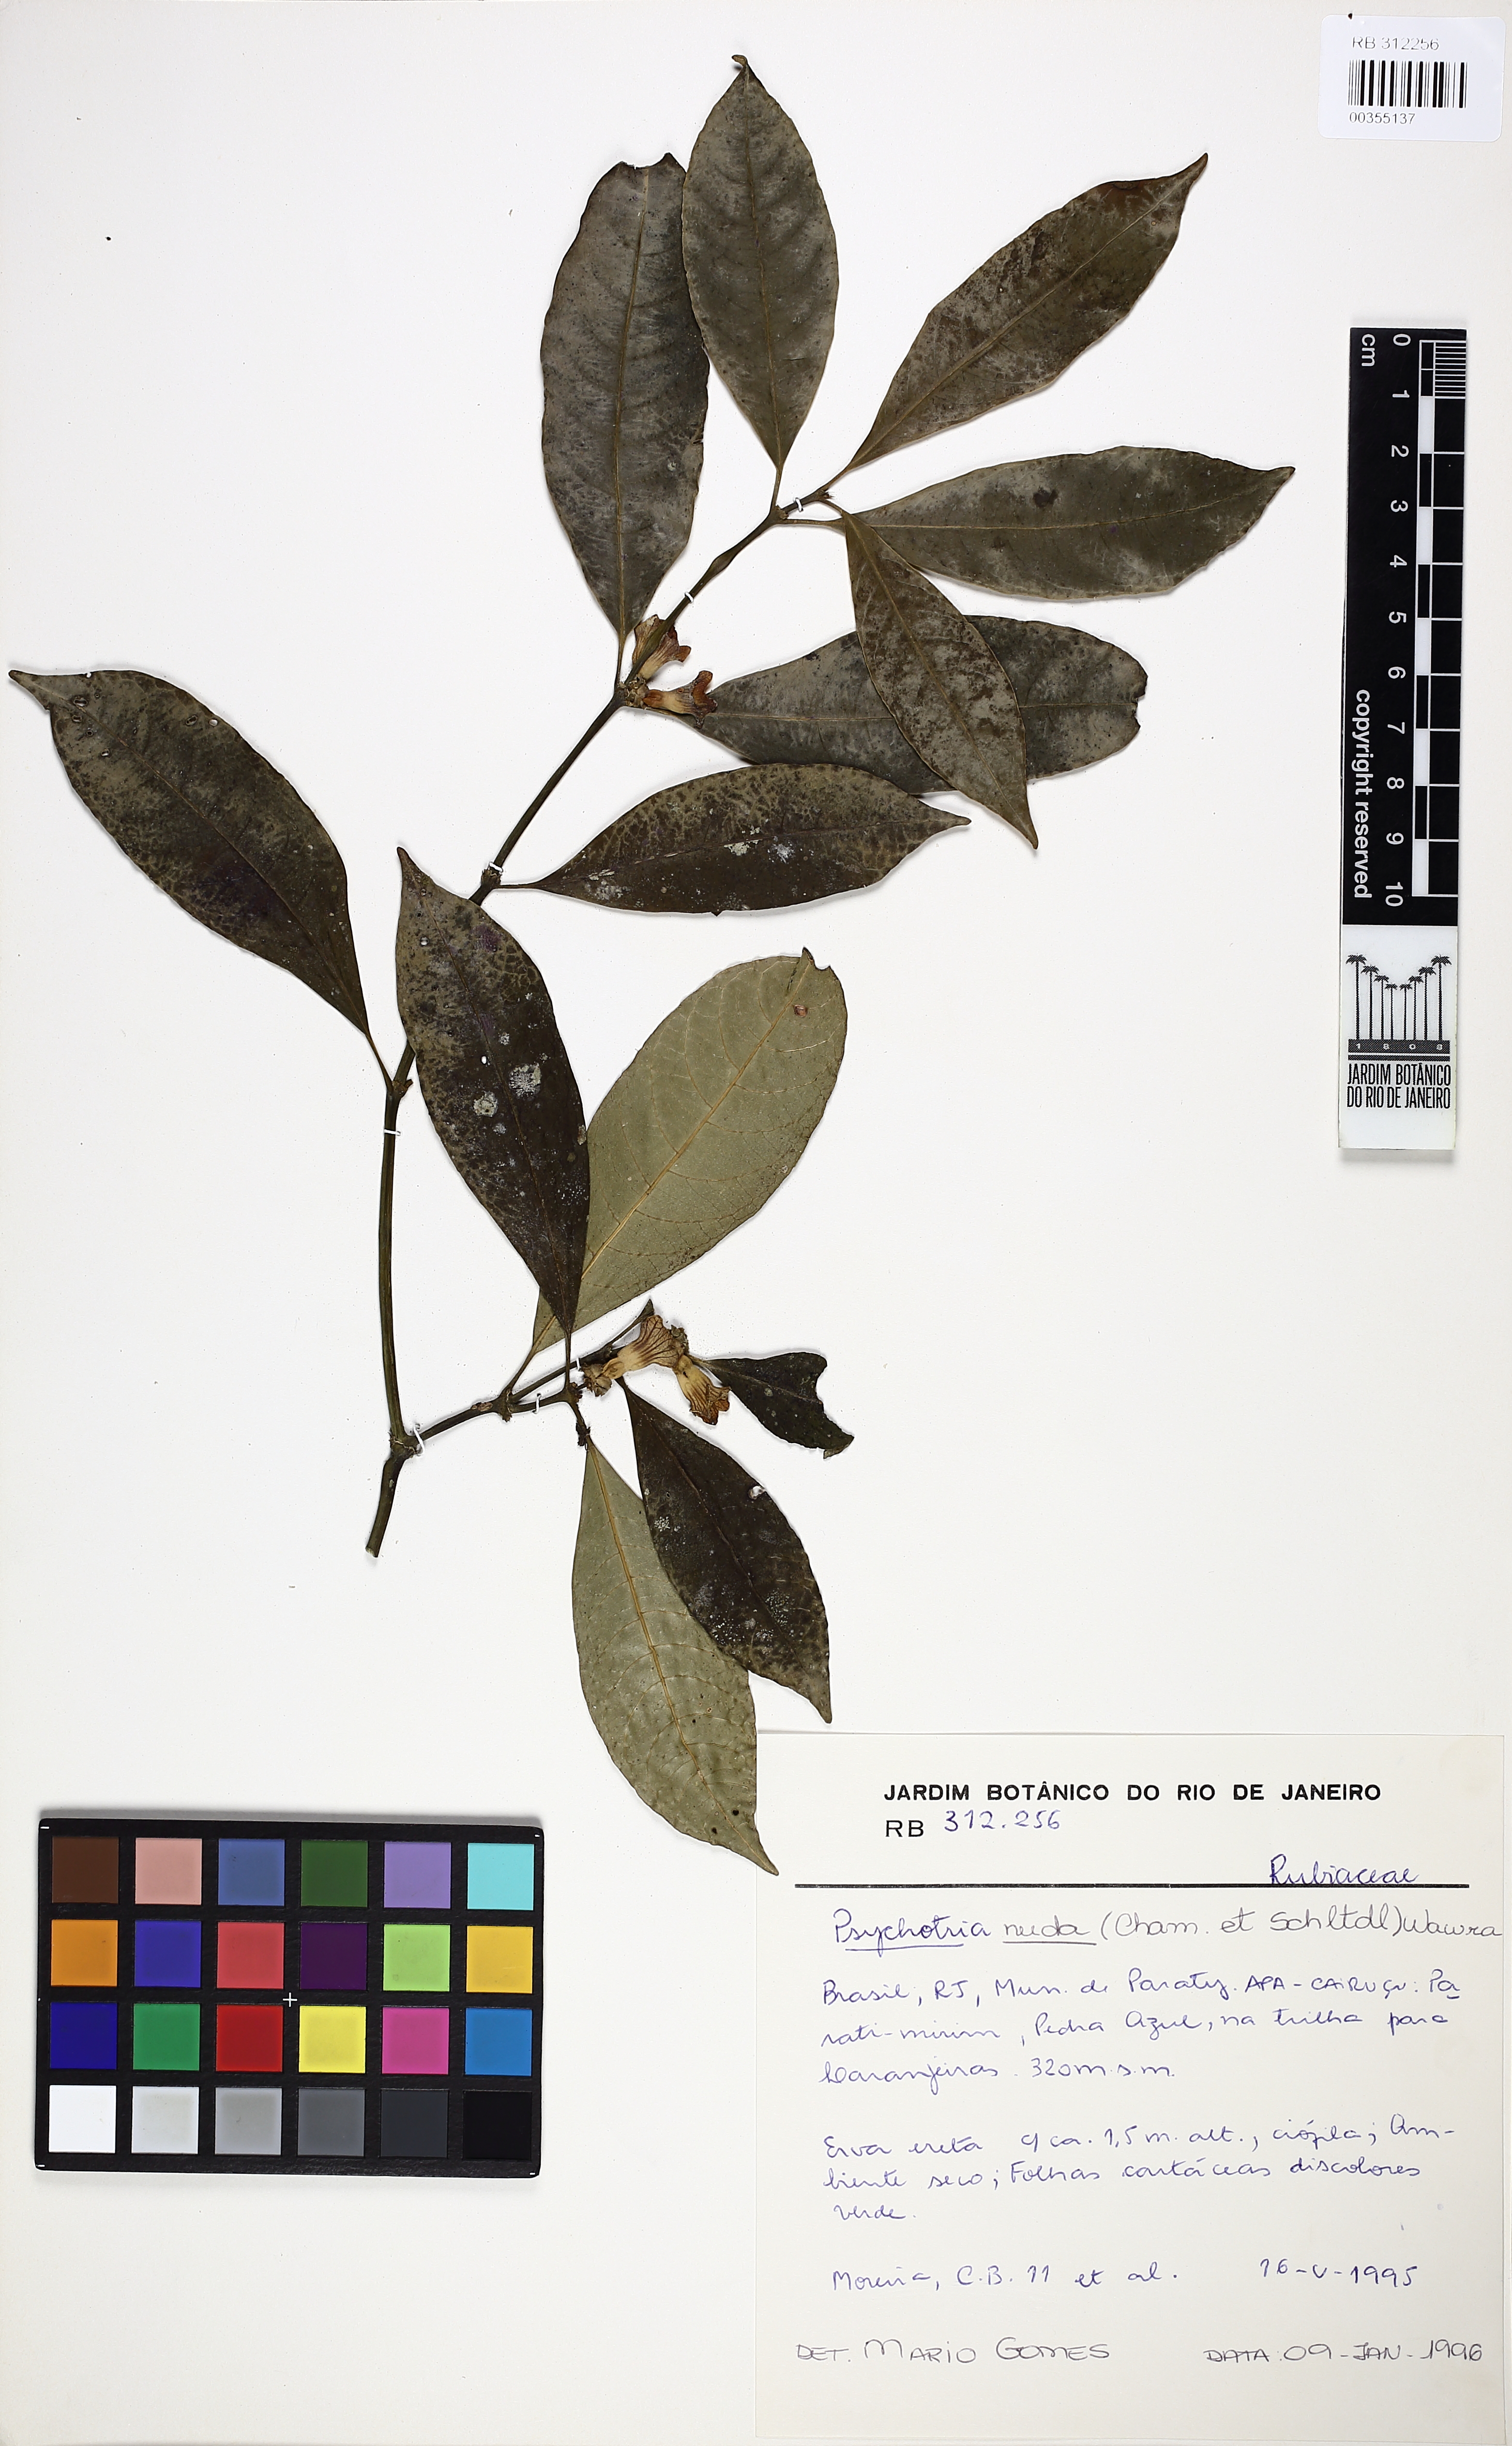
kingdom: Plantae
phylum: Tracheophyta
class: Magnoliopsida
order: Gentianales
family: Rubiaceae
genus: Psychotria
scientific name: Psychotria nuda
